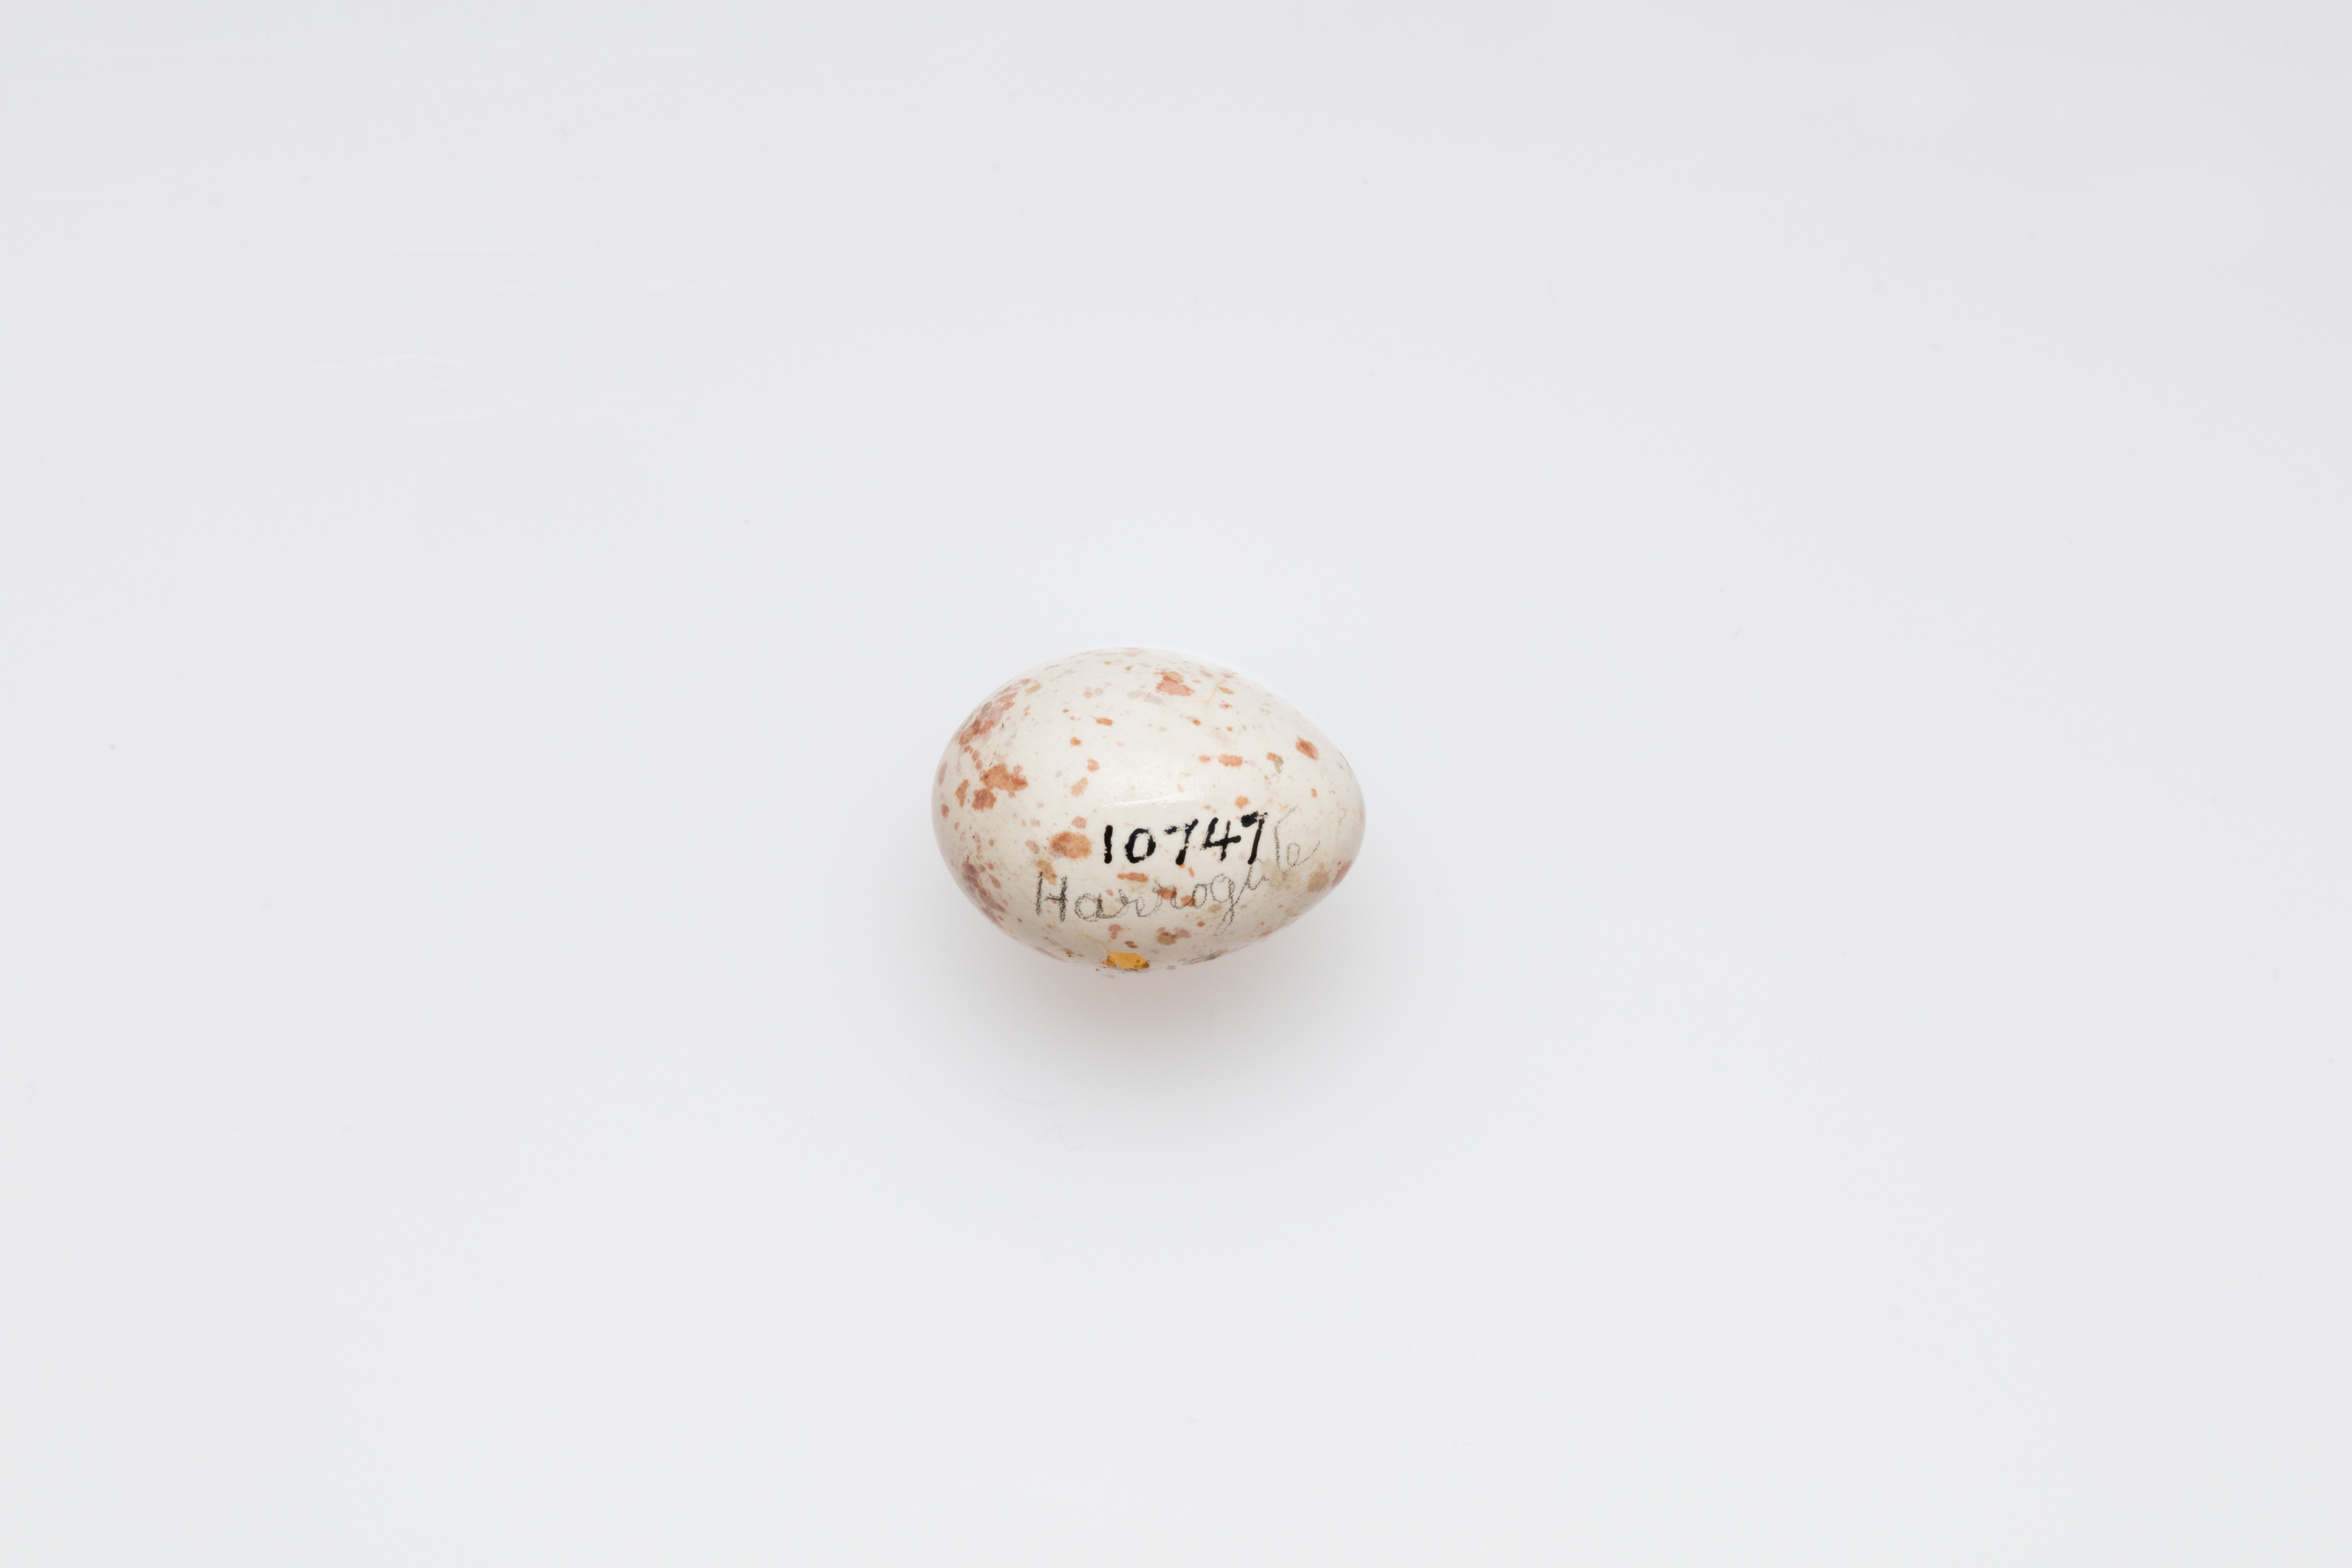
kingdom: Animalia
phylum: Chordata
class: Aves
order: Passeriformes
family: Paridae
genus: Parus
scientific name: Parus major
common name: Great tit
